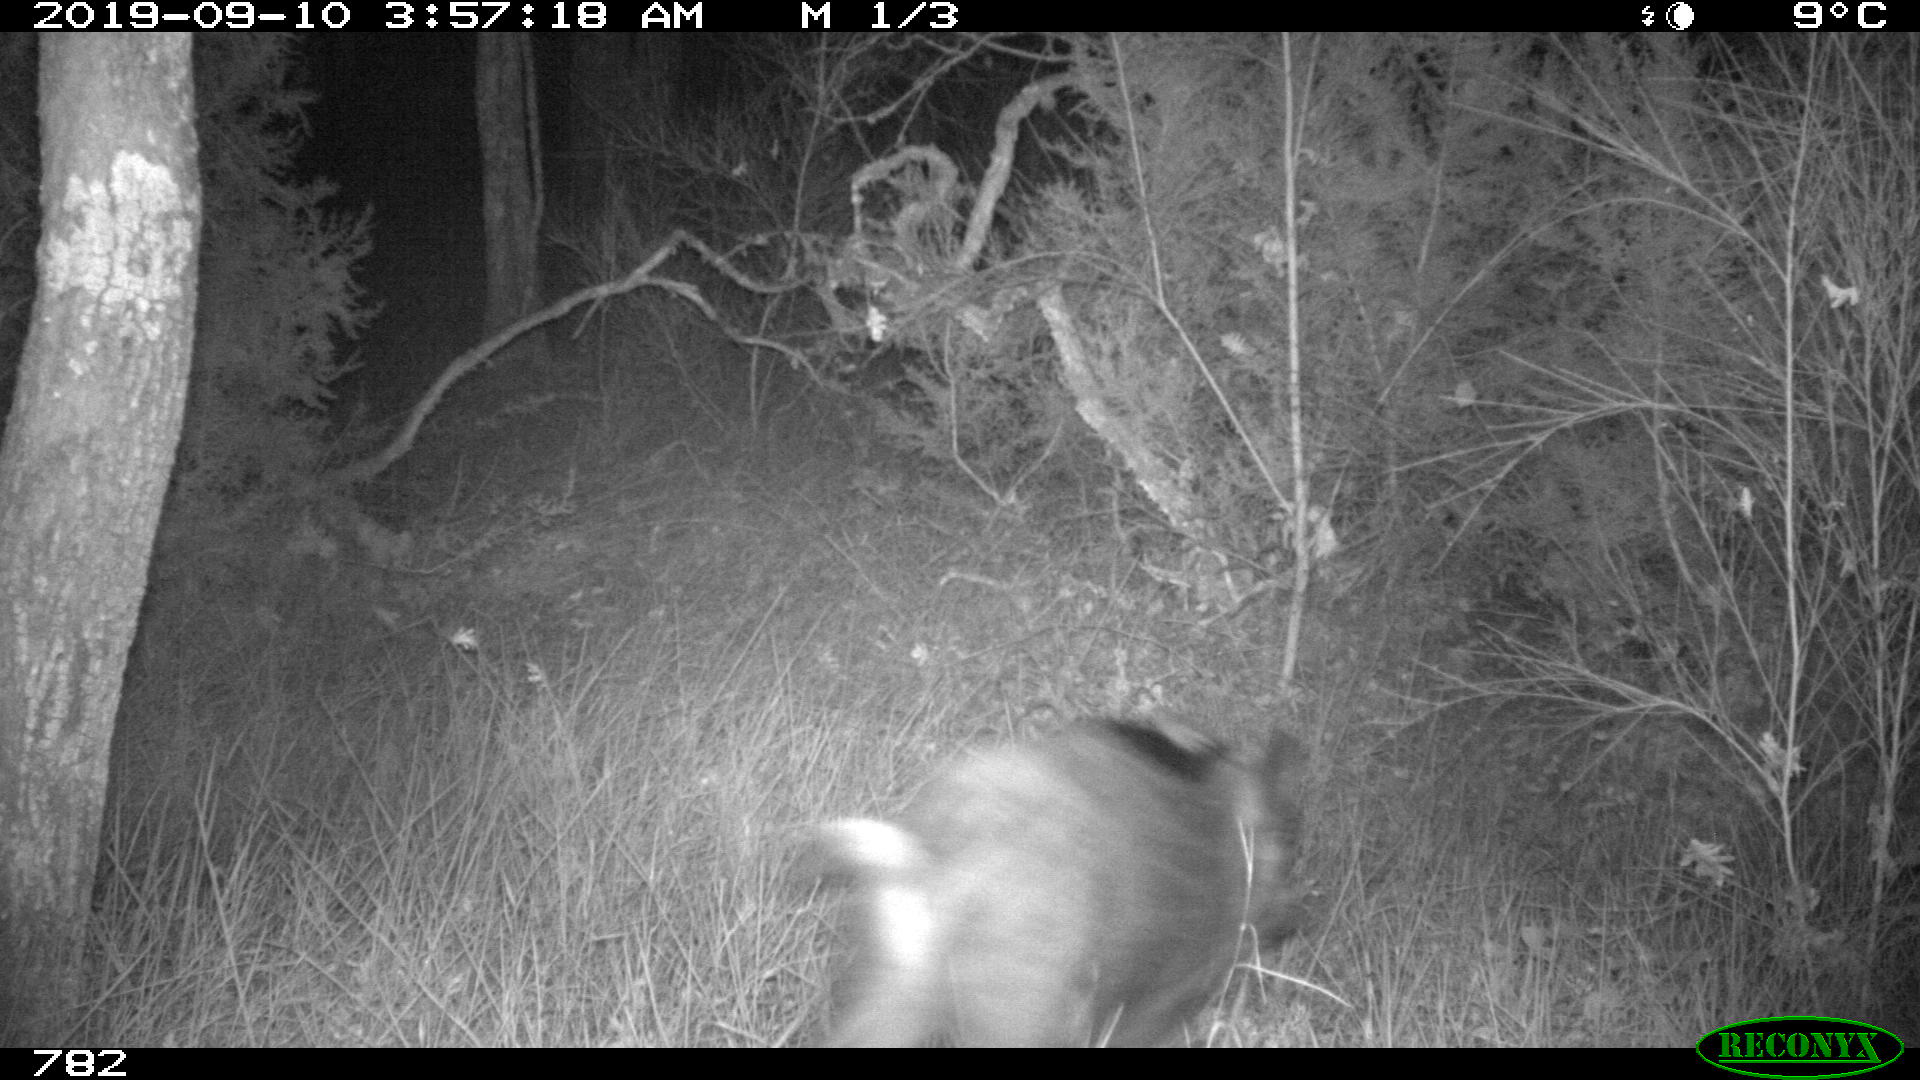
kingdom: Animalia
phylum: Chordata
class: Mammalia
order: Artiodactyla
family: Suidae
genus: Sus
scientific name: Sus scrofa
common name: Wild boar
